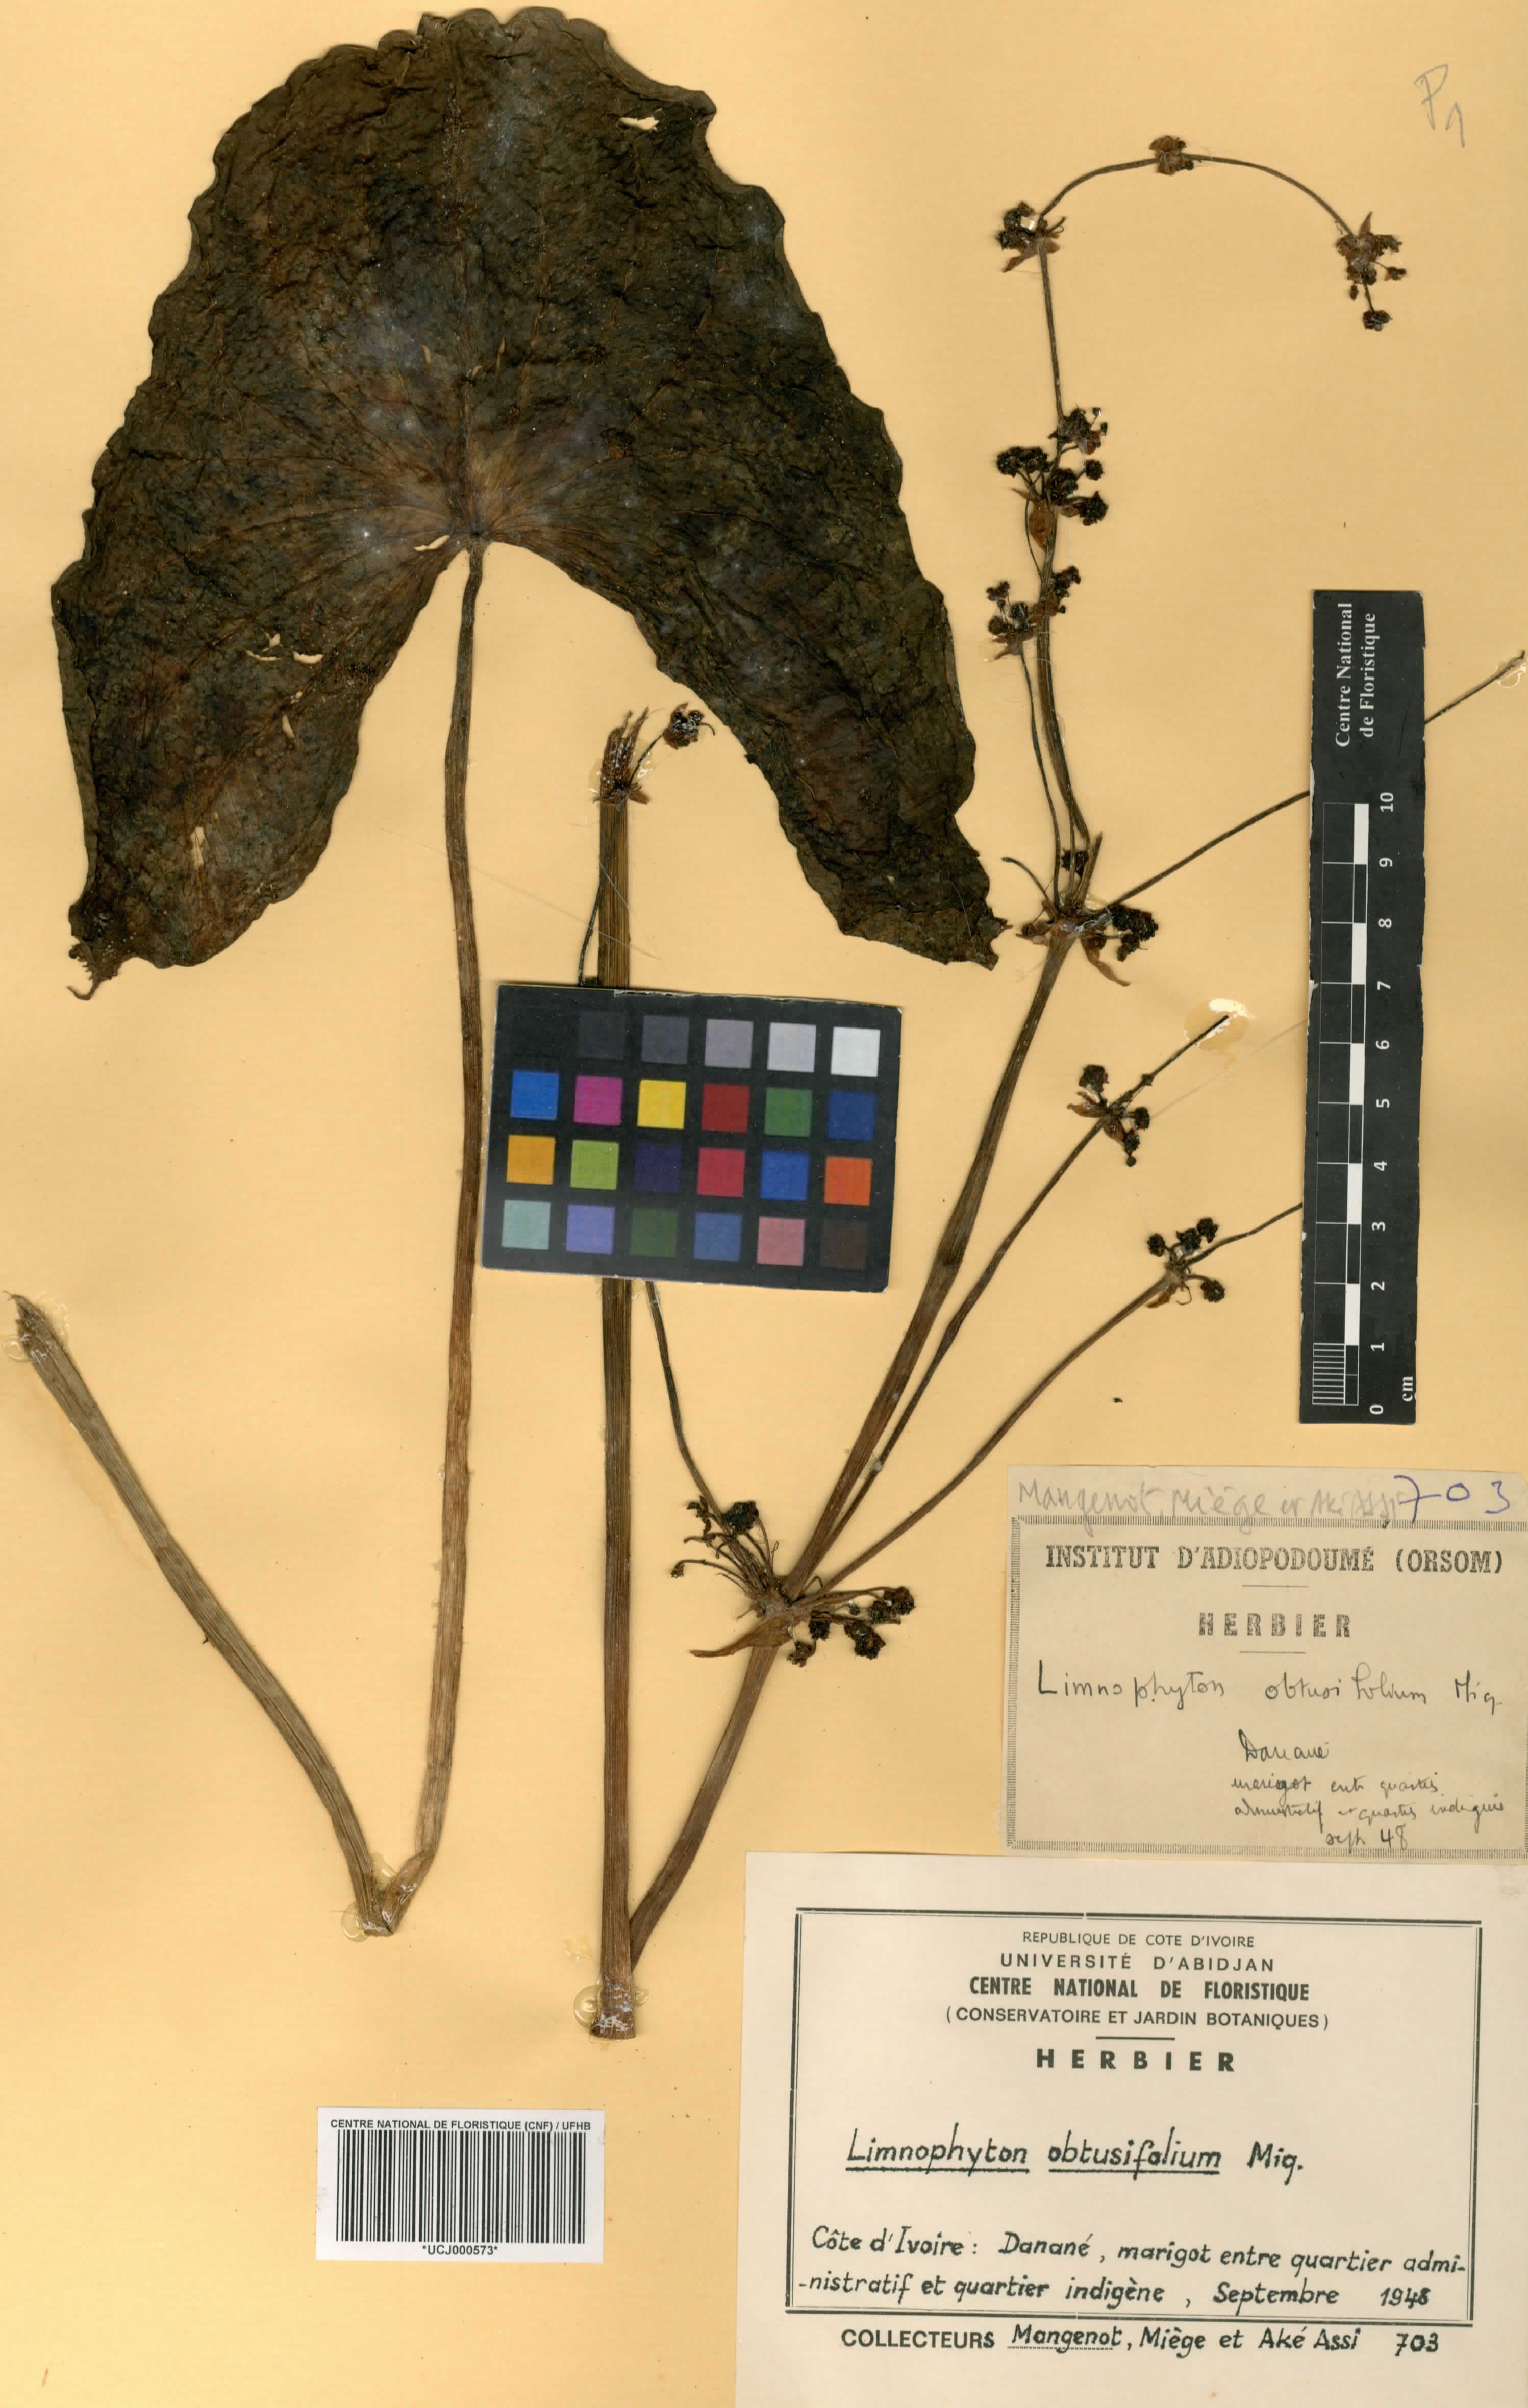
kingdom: Plantae
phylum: Tracheophyta
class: Liliopsida
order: Alismatales
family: Alismataceae
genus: Limnophyton
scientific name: Limnophyton obtusifolium
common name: Arrow head
